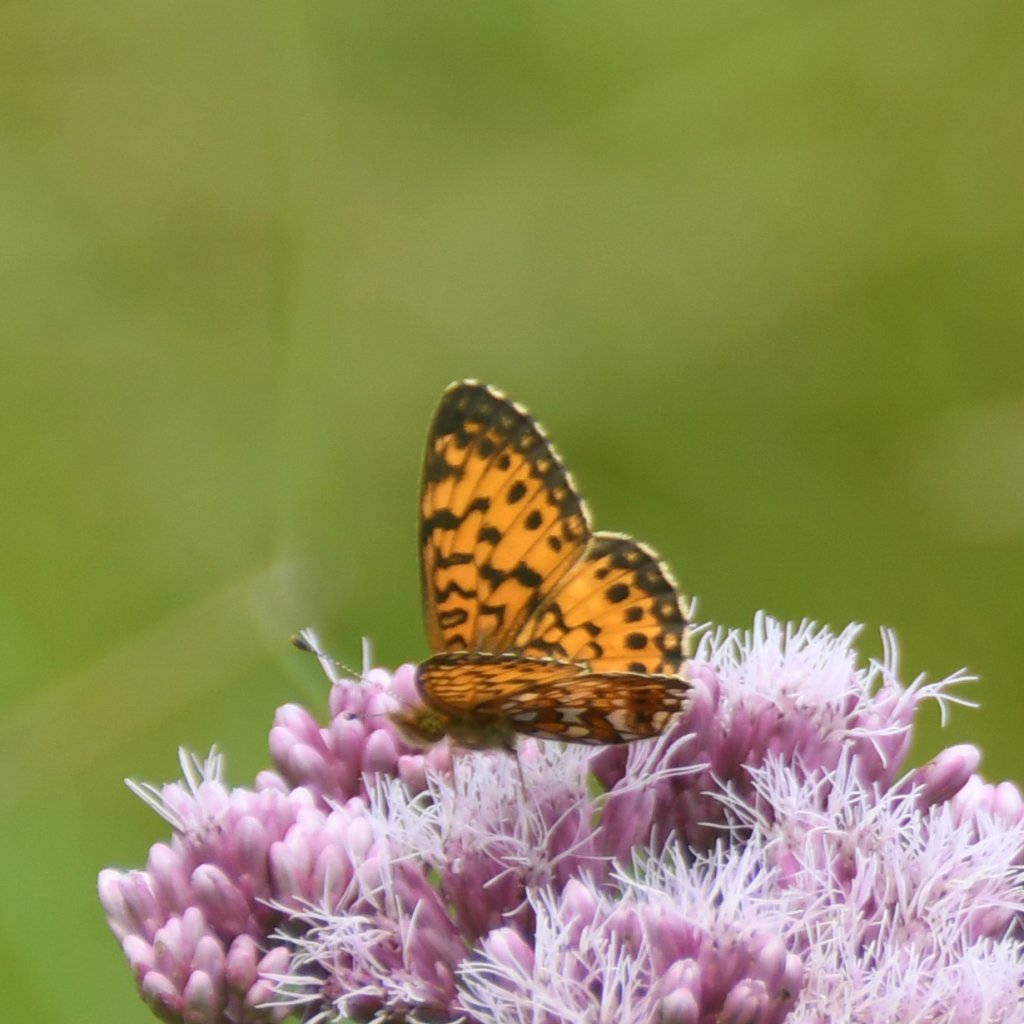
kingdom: Animalia
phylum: Arthropoda
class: Insecta
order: Lepidoptera
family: Nymphalidae
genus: Boloria
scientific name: Boloria selene
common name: Silver-bordered Fritillary
